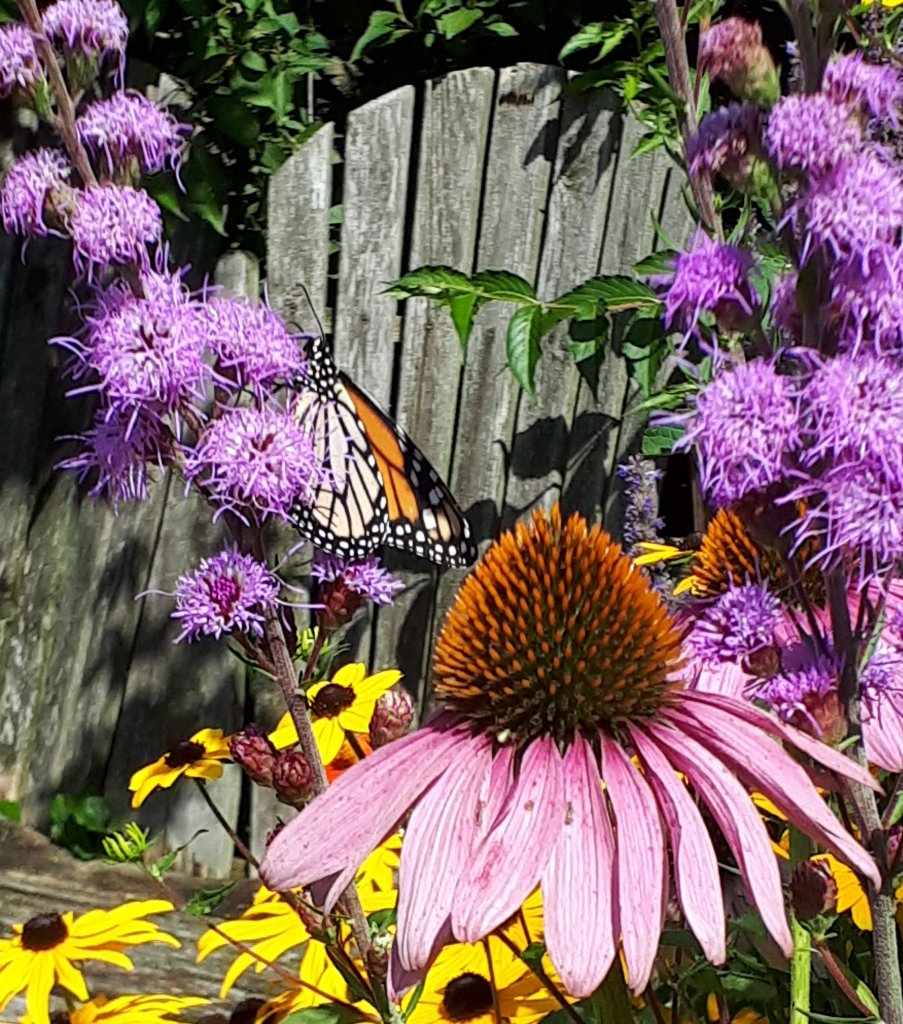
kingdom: Animalia
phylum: Arthropoda
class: Insecta
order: Lepidoptera
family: Nymphalidae
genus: Danaus
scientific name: Danaus plexippus
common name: Monarch
